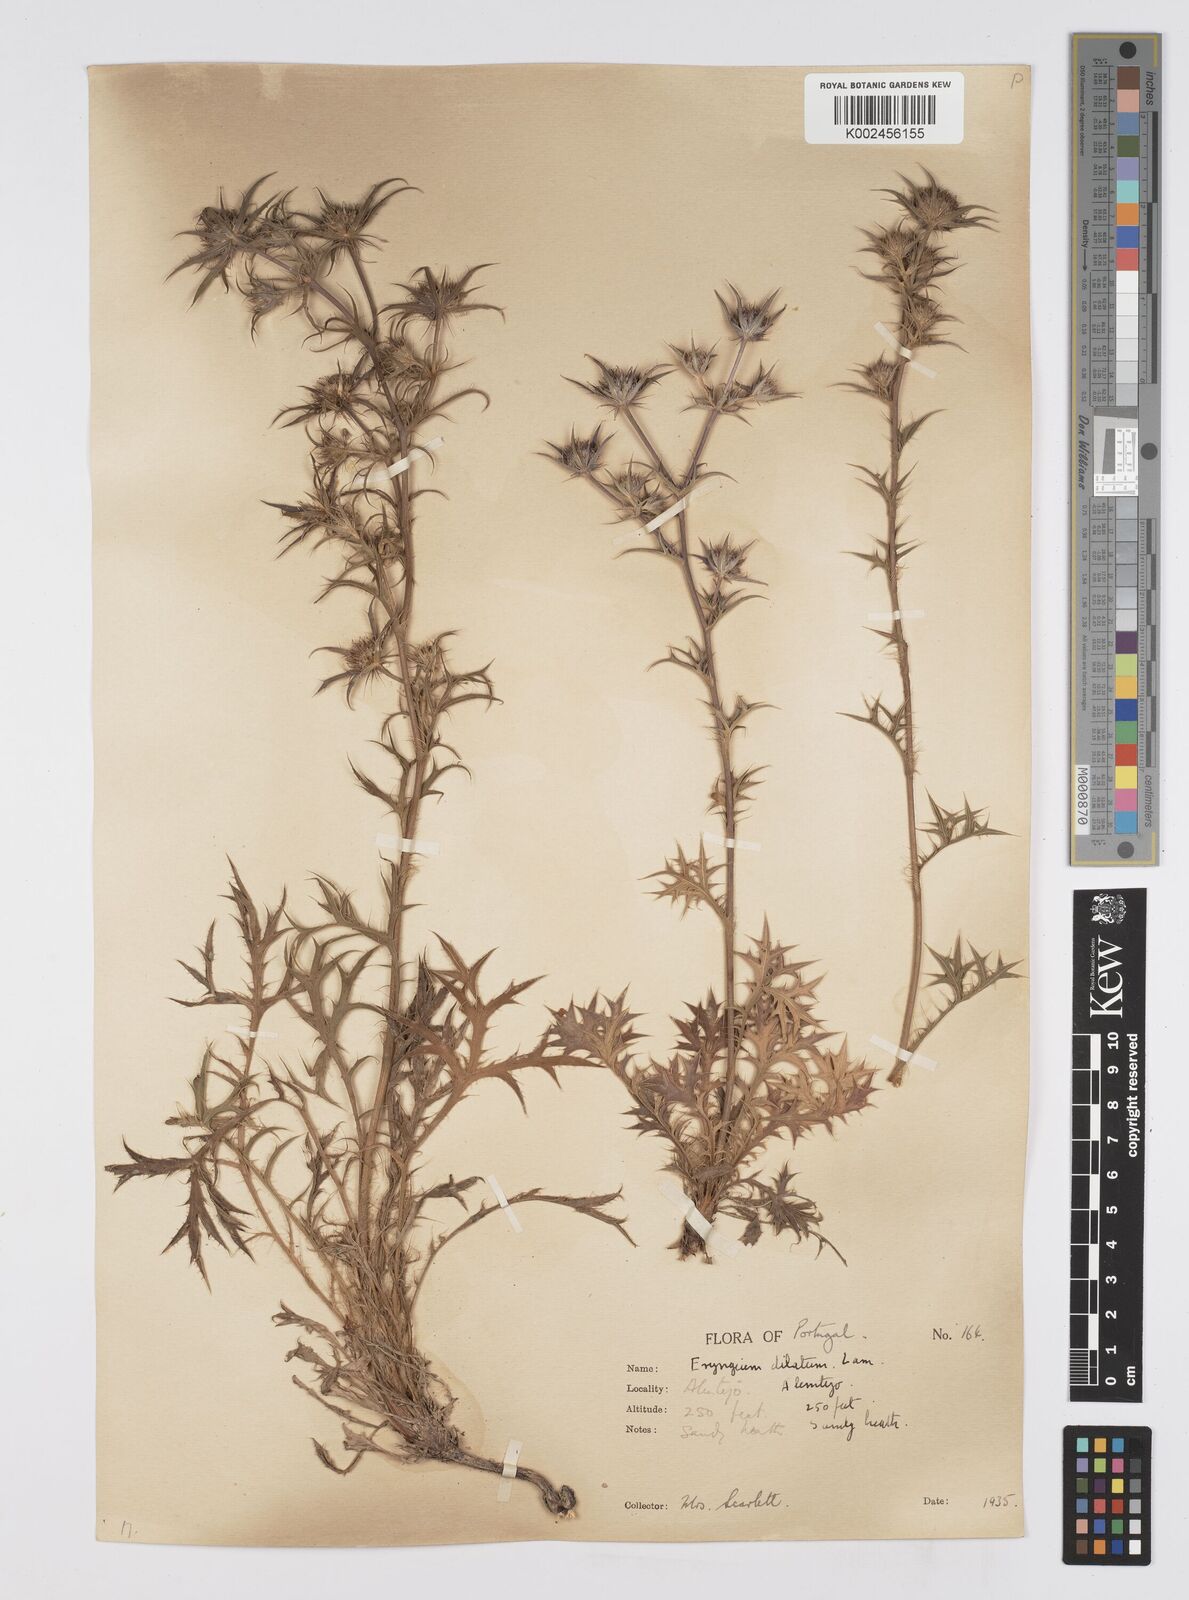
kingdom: Plantae
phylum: Tracheophyta
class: Magnoliopsida
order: Apiales
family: Apiaceae
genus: Eryngium
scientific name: Eryngium dilatatum
